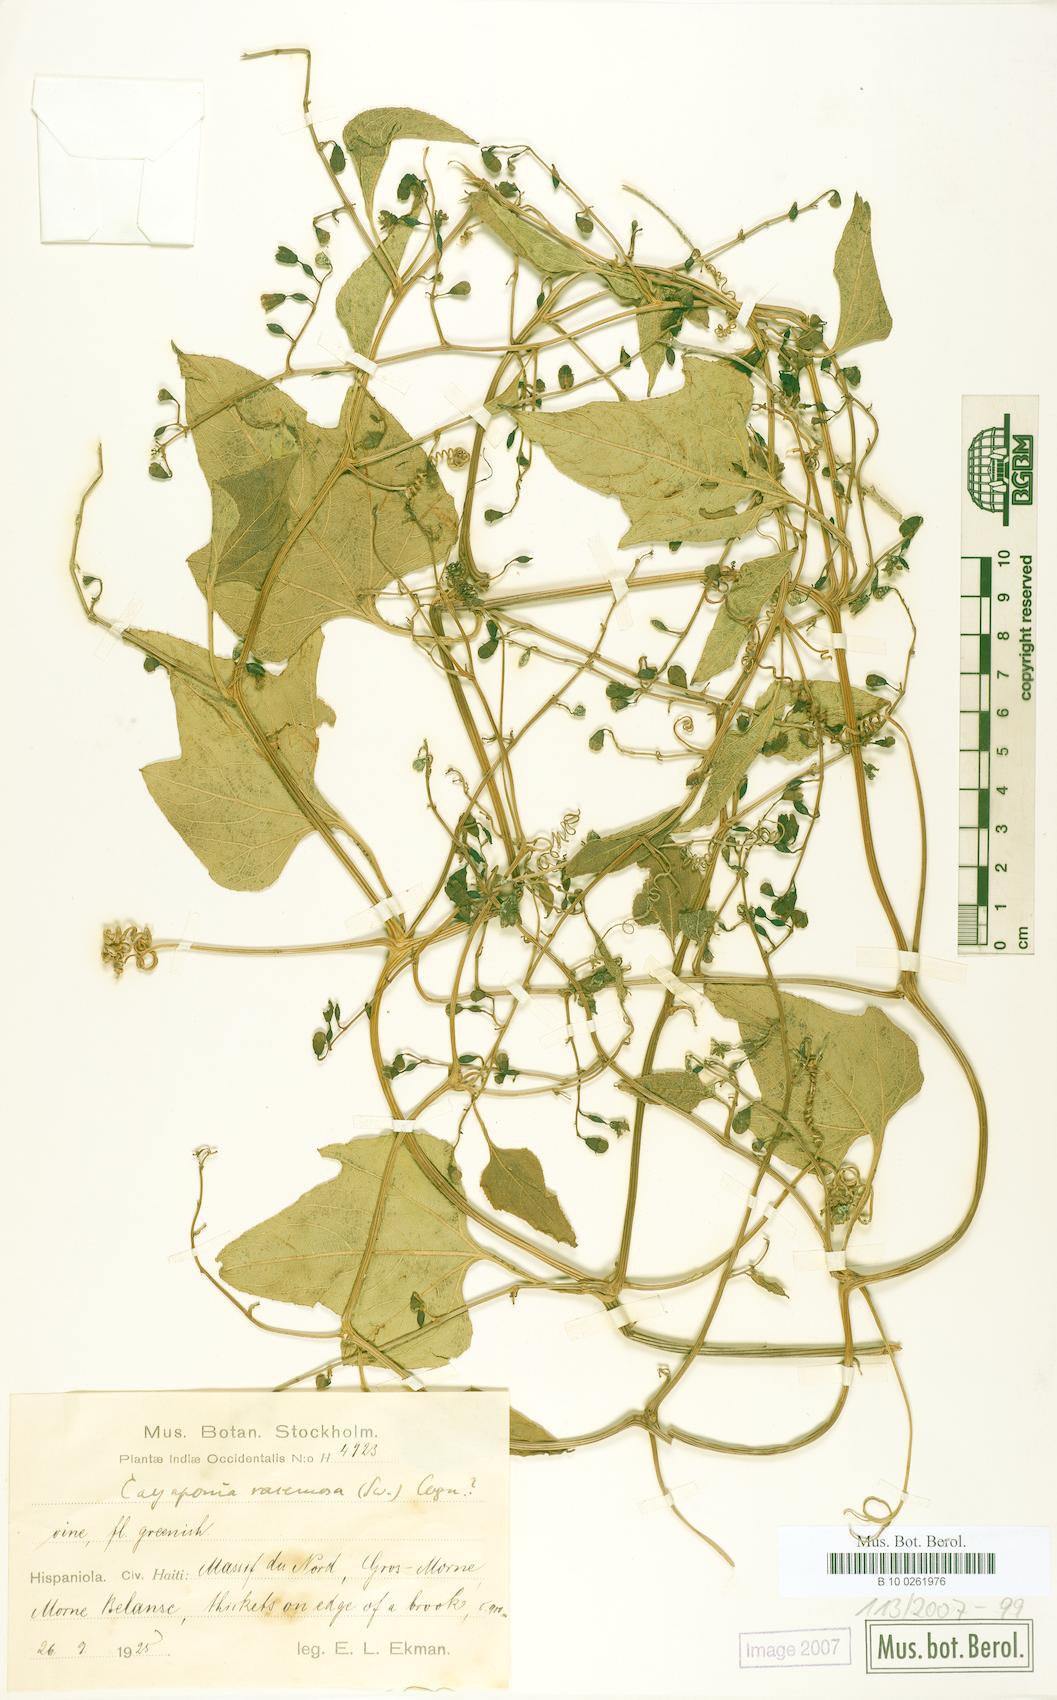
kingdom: Plantae
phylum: Tracheophyta
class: Magnoliopsida
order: Cucurbitales
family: Cucurbitaceae
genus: Cayaponia
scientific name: Cayaponia racemosa
